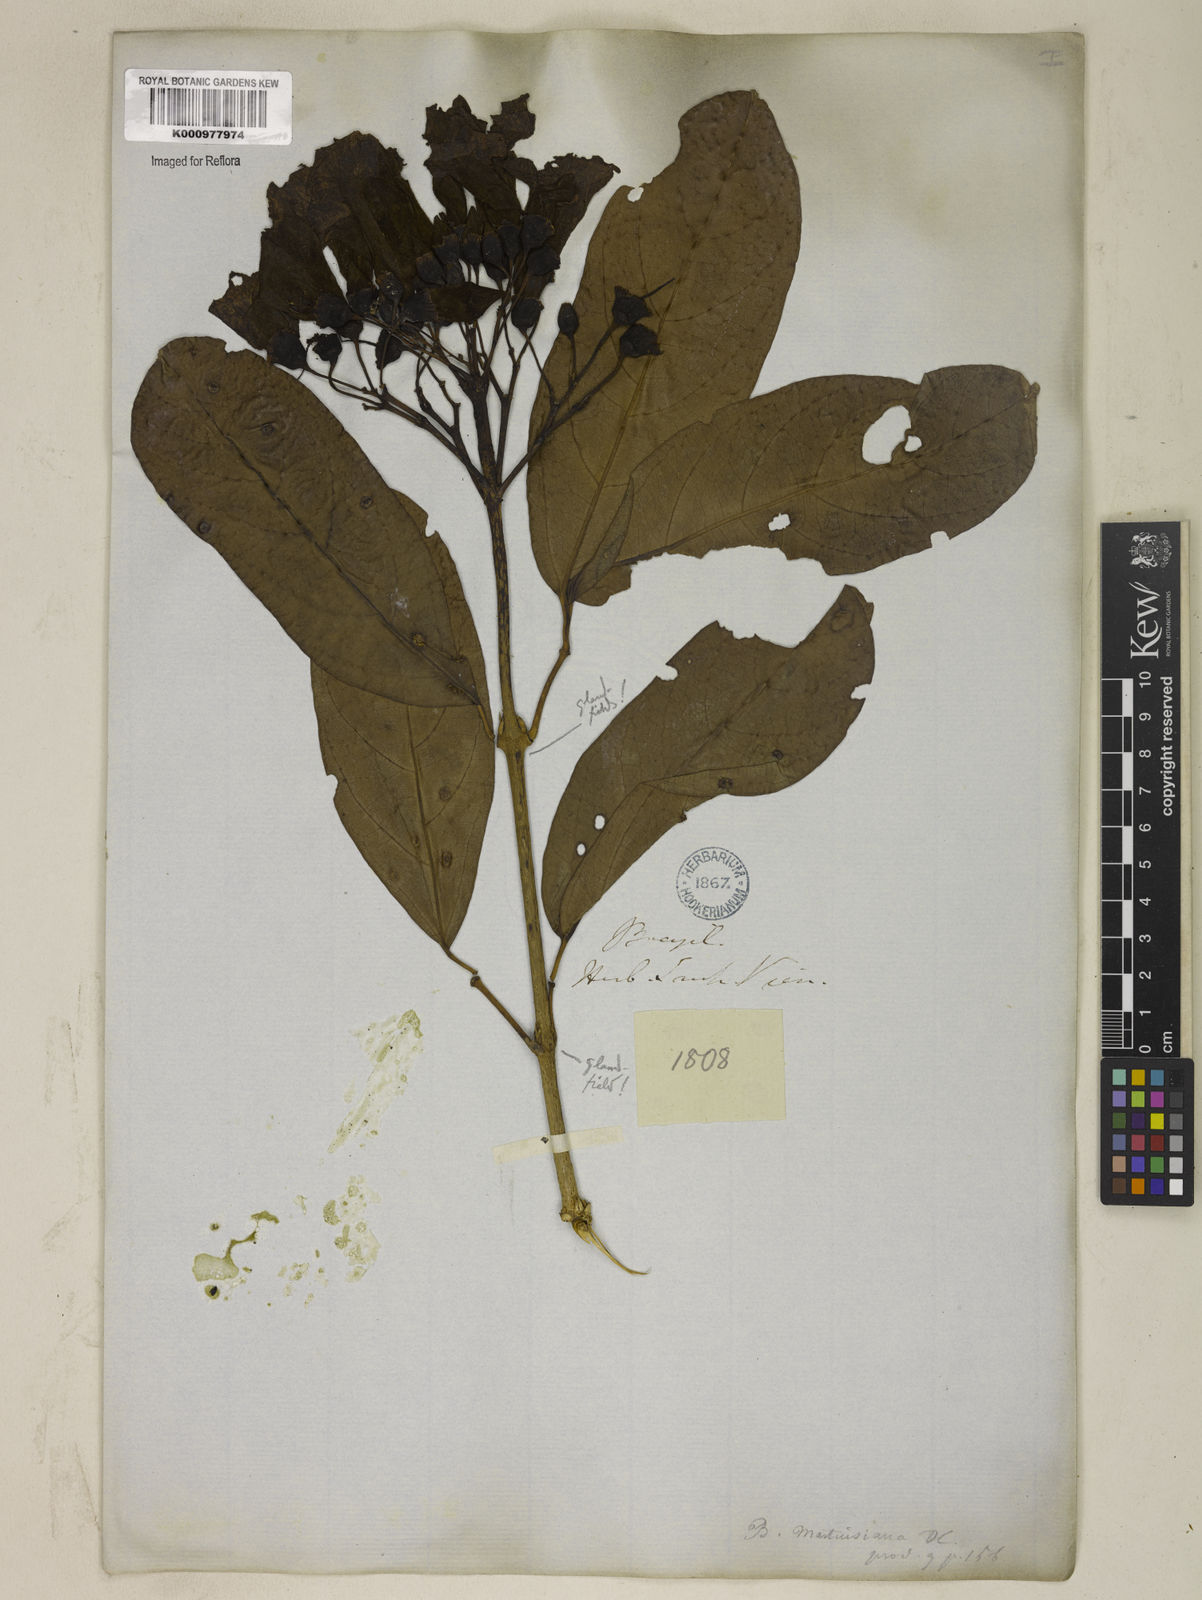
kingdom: Plantae
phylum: Tracheophyta
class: Magnoliopsida
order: Lamiales
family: Bignoniaceae
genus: Tanaecium
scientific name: Tanaecium pyramidatum
